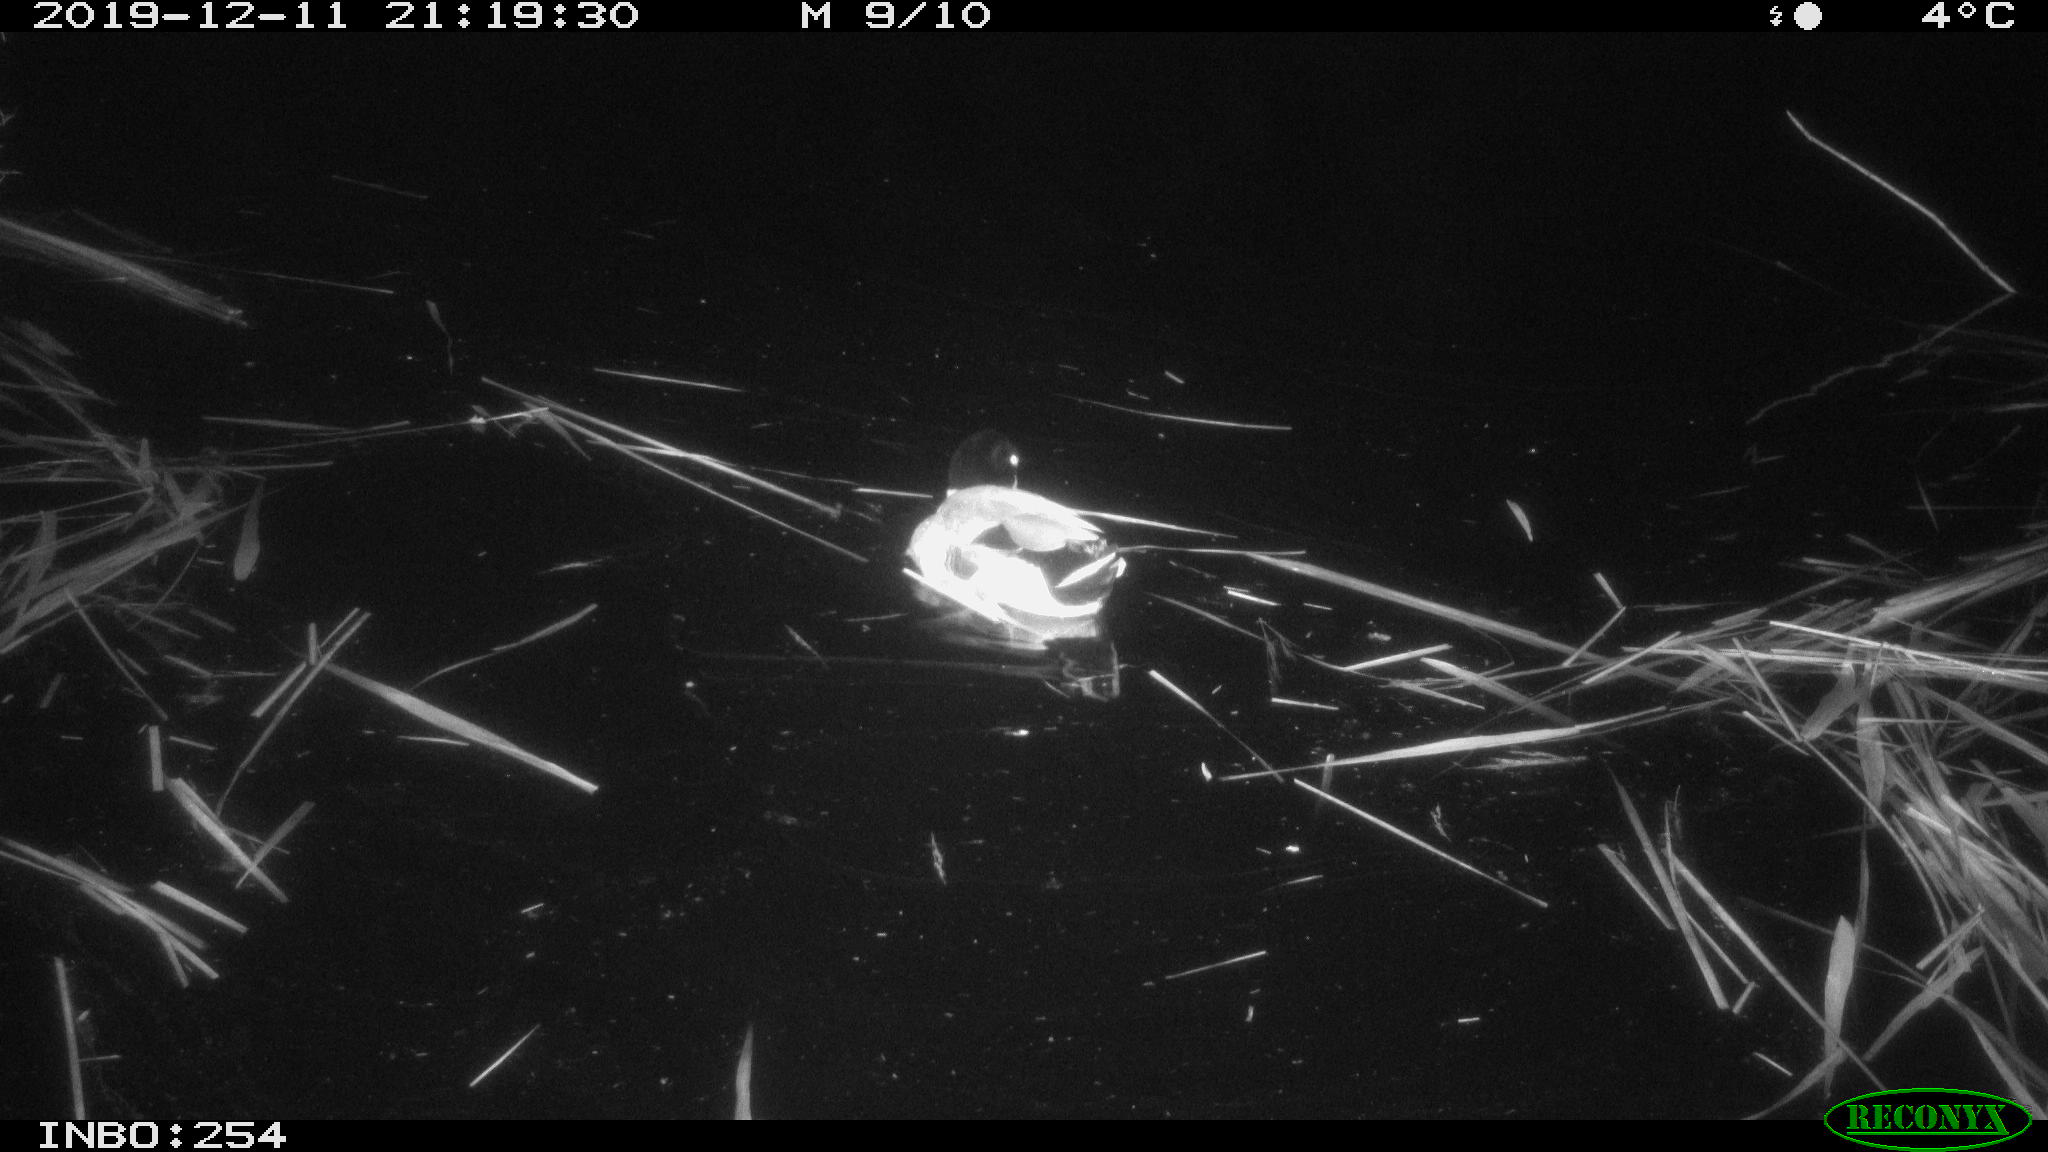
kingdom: Animalia
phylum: Chordata
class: Aves
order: Anseriformes
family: Anatidae
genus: Anas
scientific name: Anas platyrhynchos
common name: Mallard
